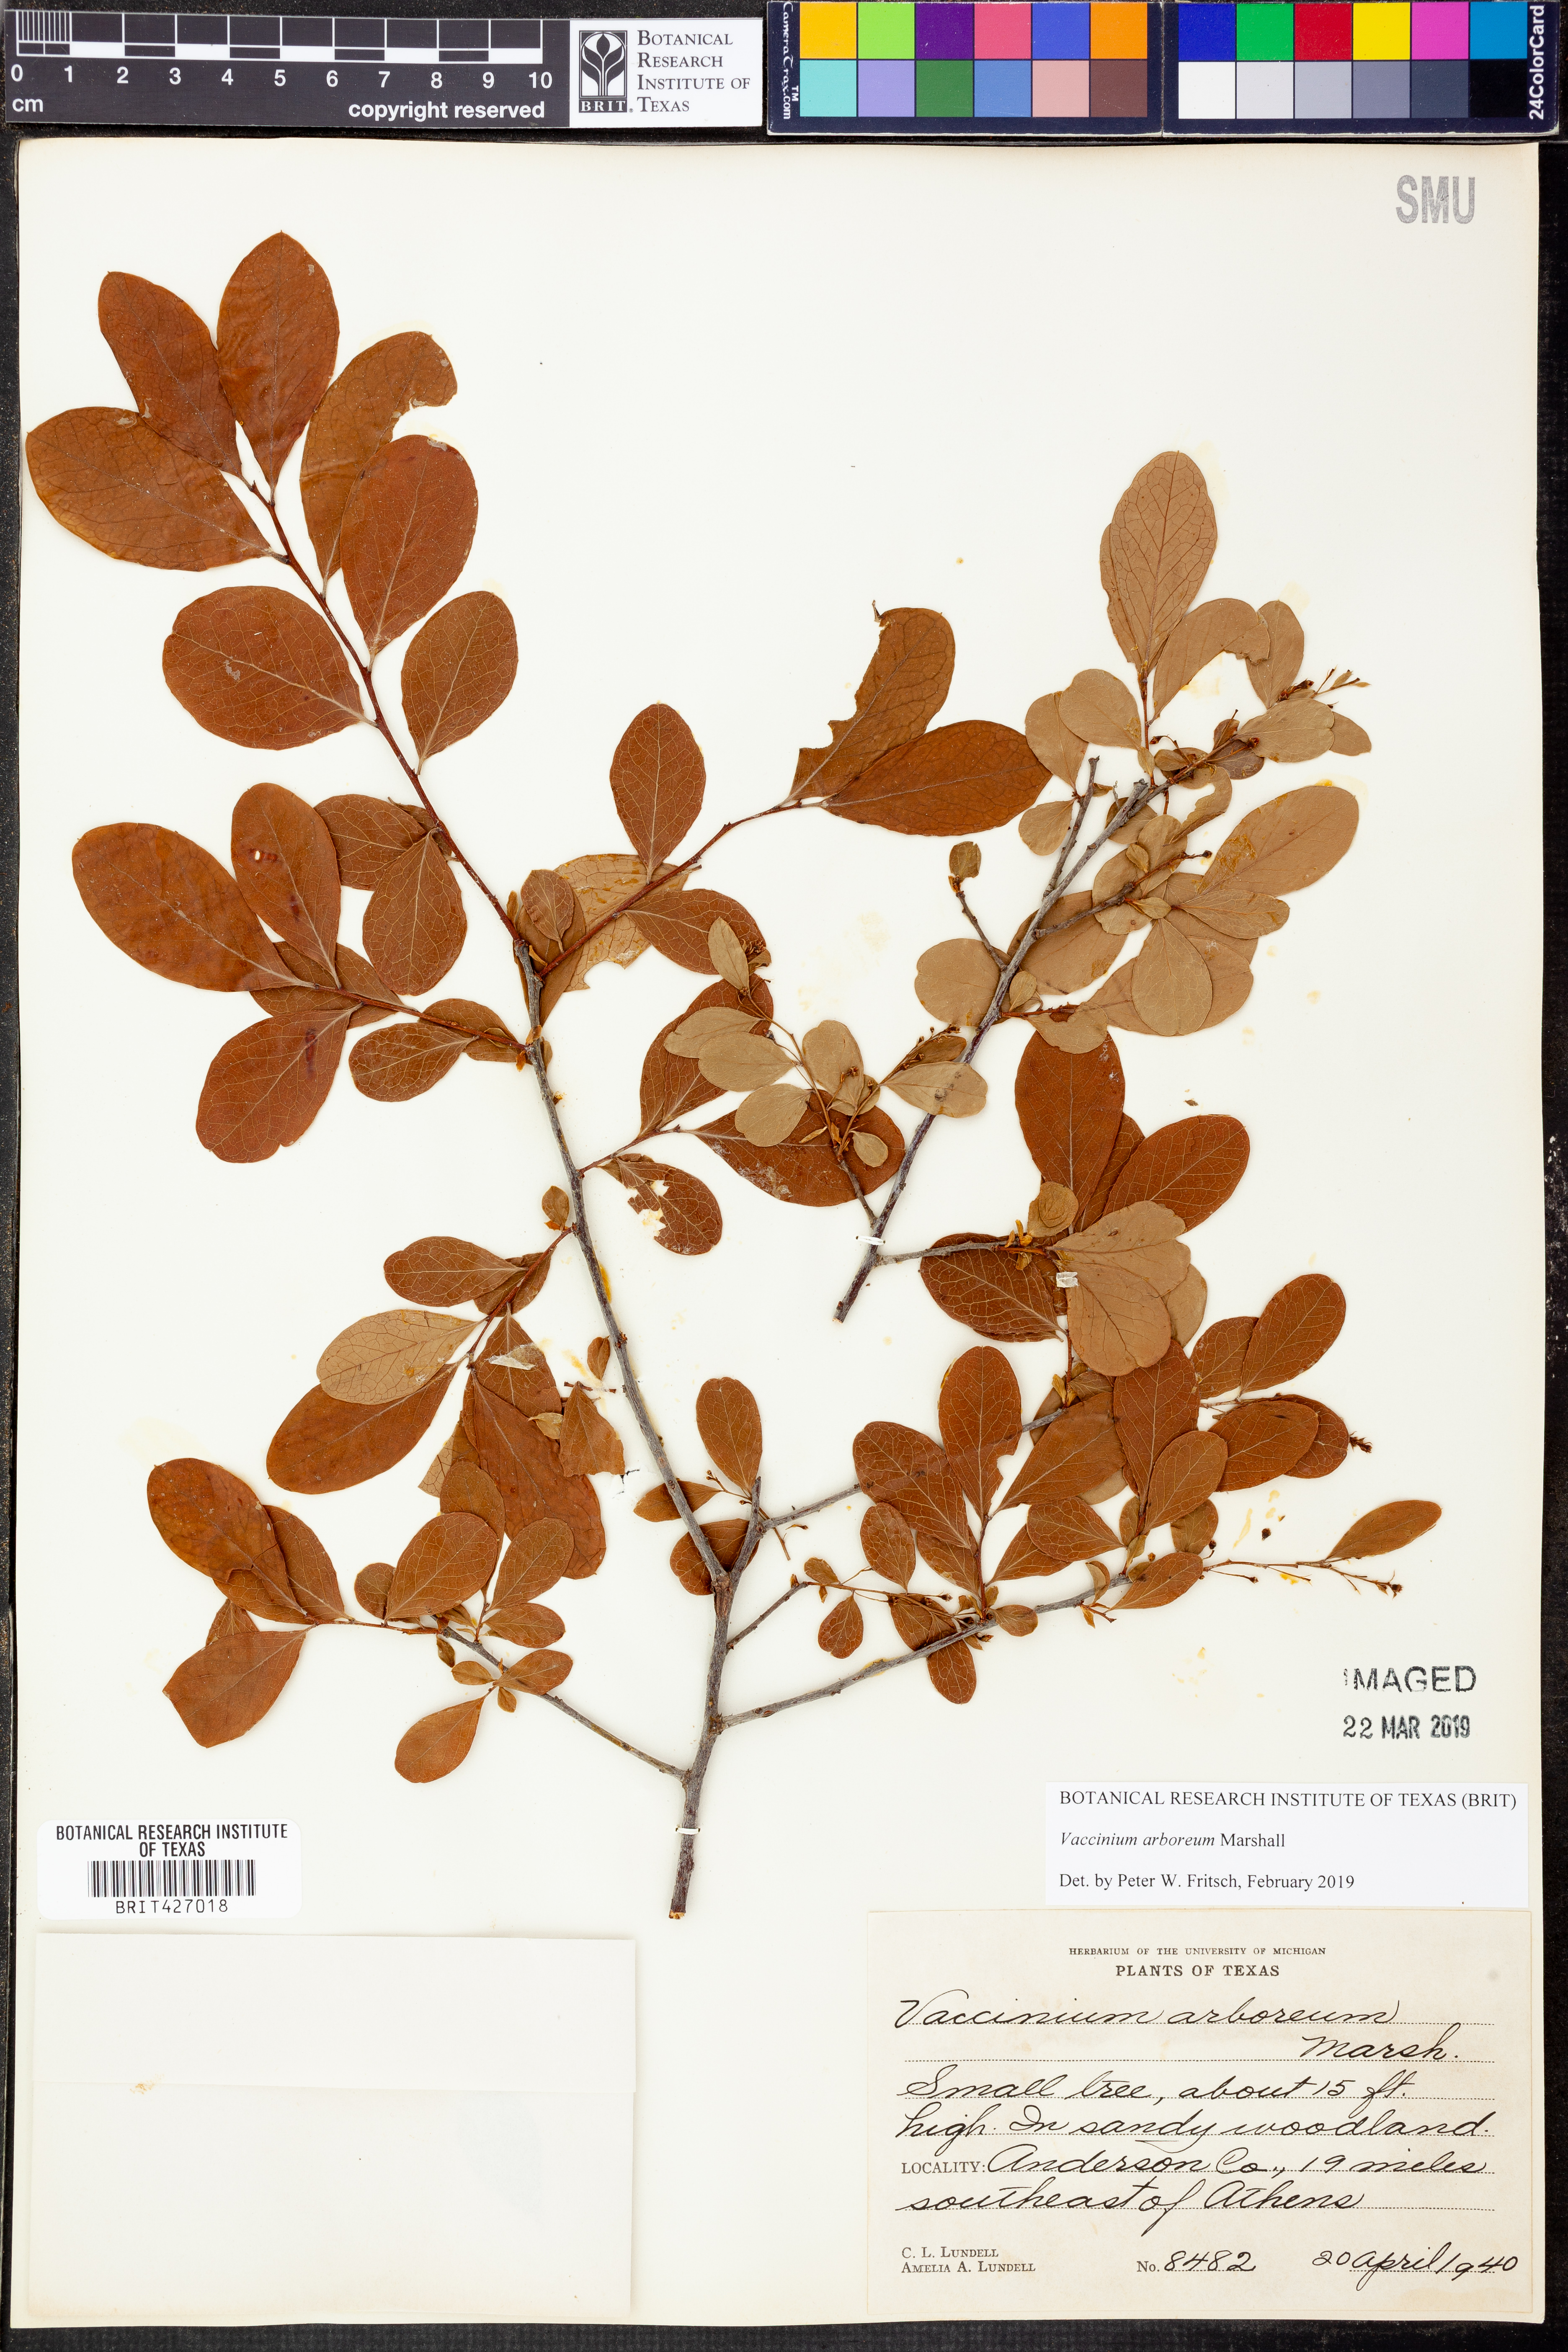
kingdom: Plantae
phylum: Tracheophyta
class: Magnoliopsida
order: Ericales
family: Ericaceae
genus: Vaccinium
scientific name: Vaccinium arboreum
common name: Farkleberry
